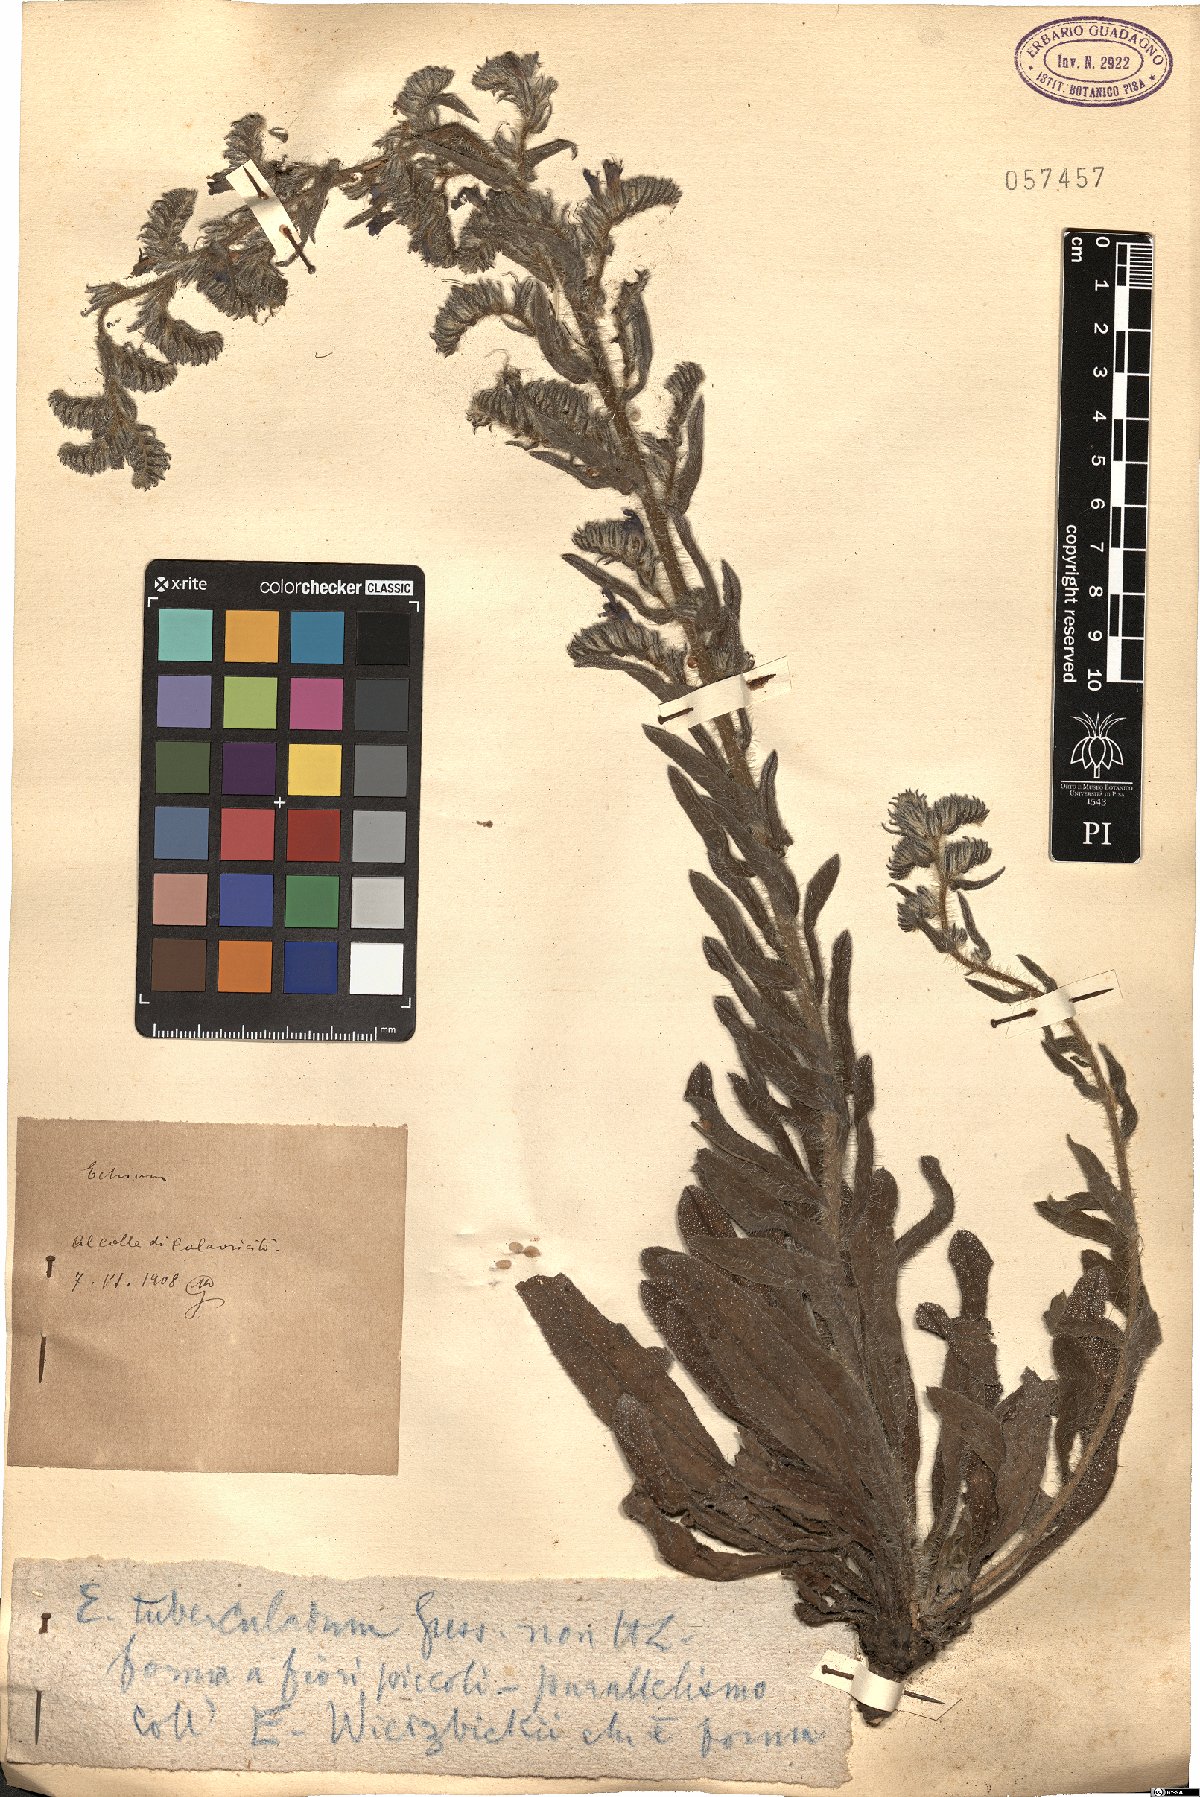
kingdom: Plantae
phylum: Tracheophyta
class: Magnoliopsida
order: Boraginales
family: Boraginaceae
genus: Echium
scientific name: Echium tuberculatum
